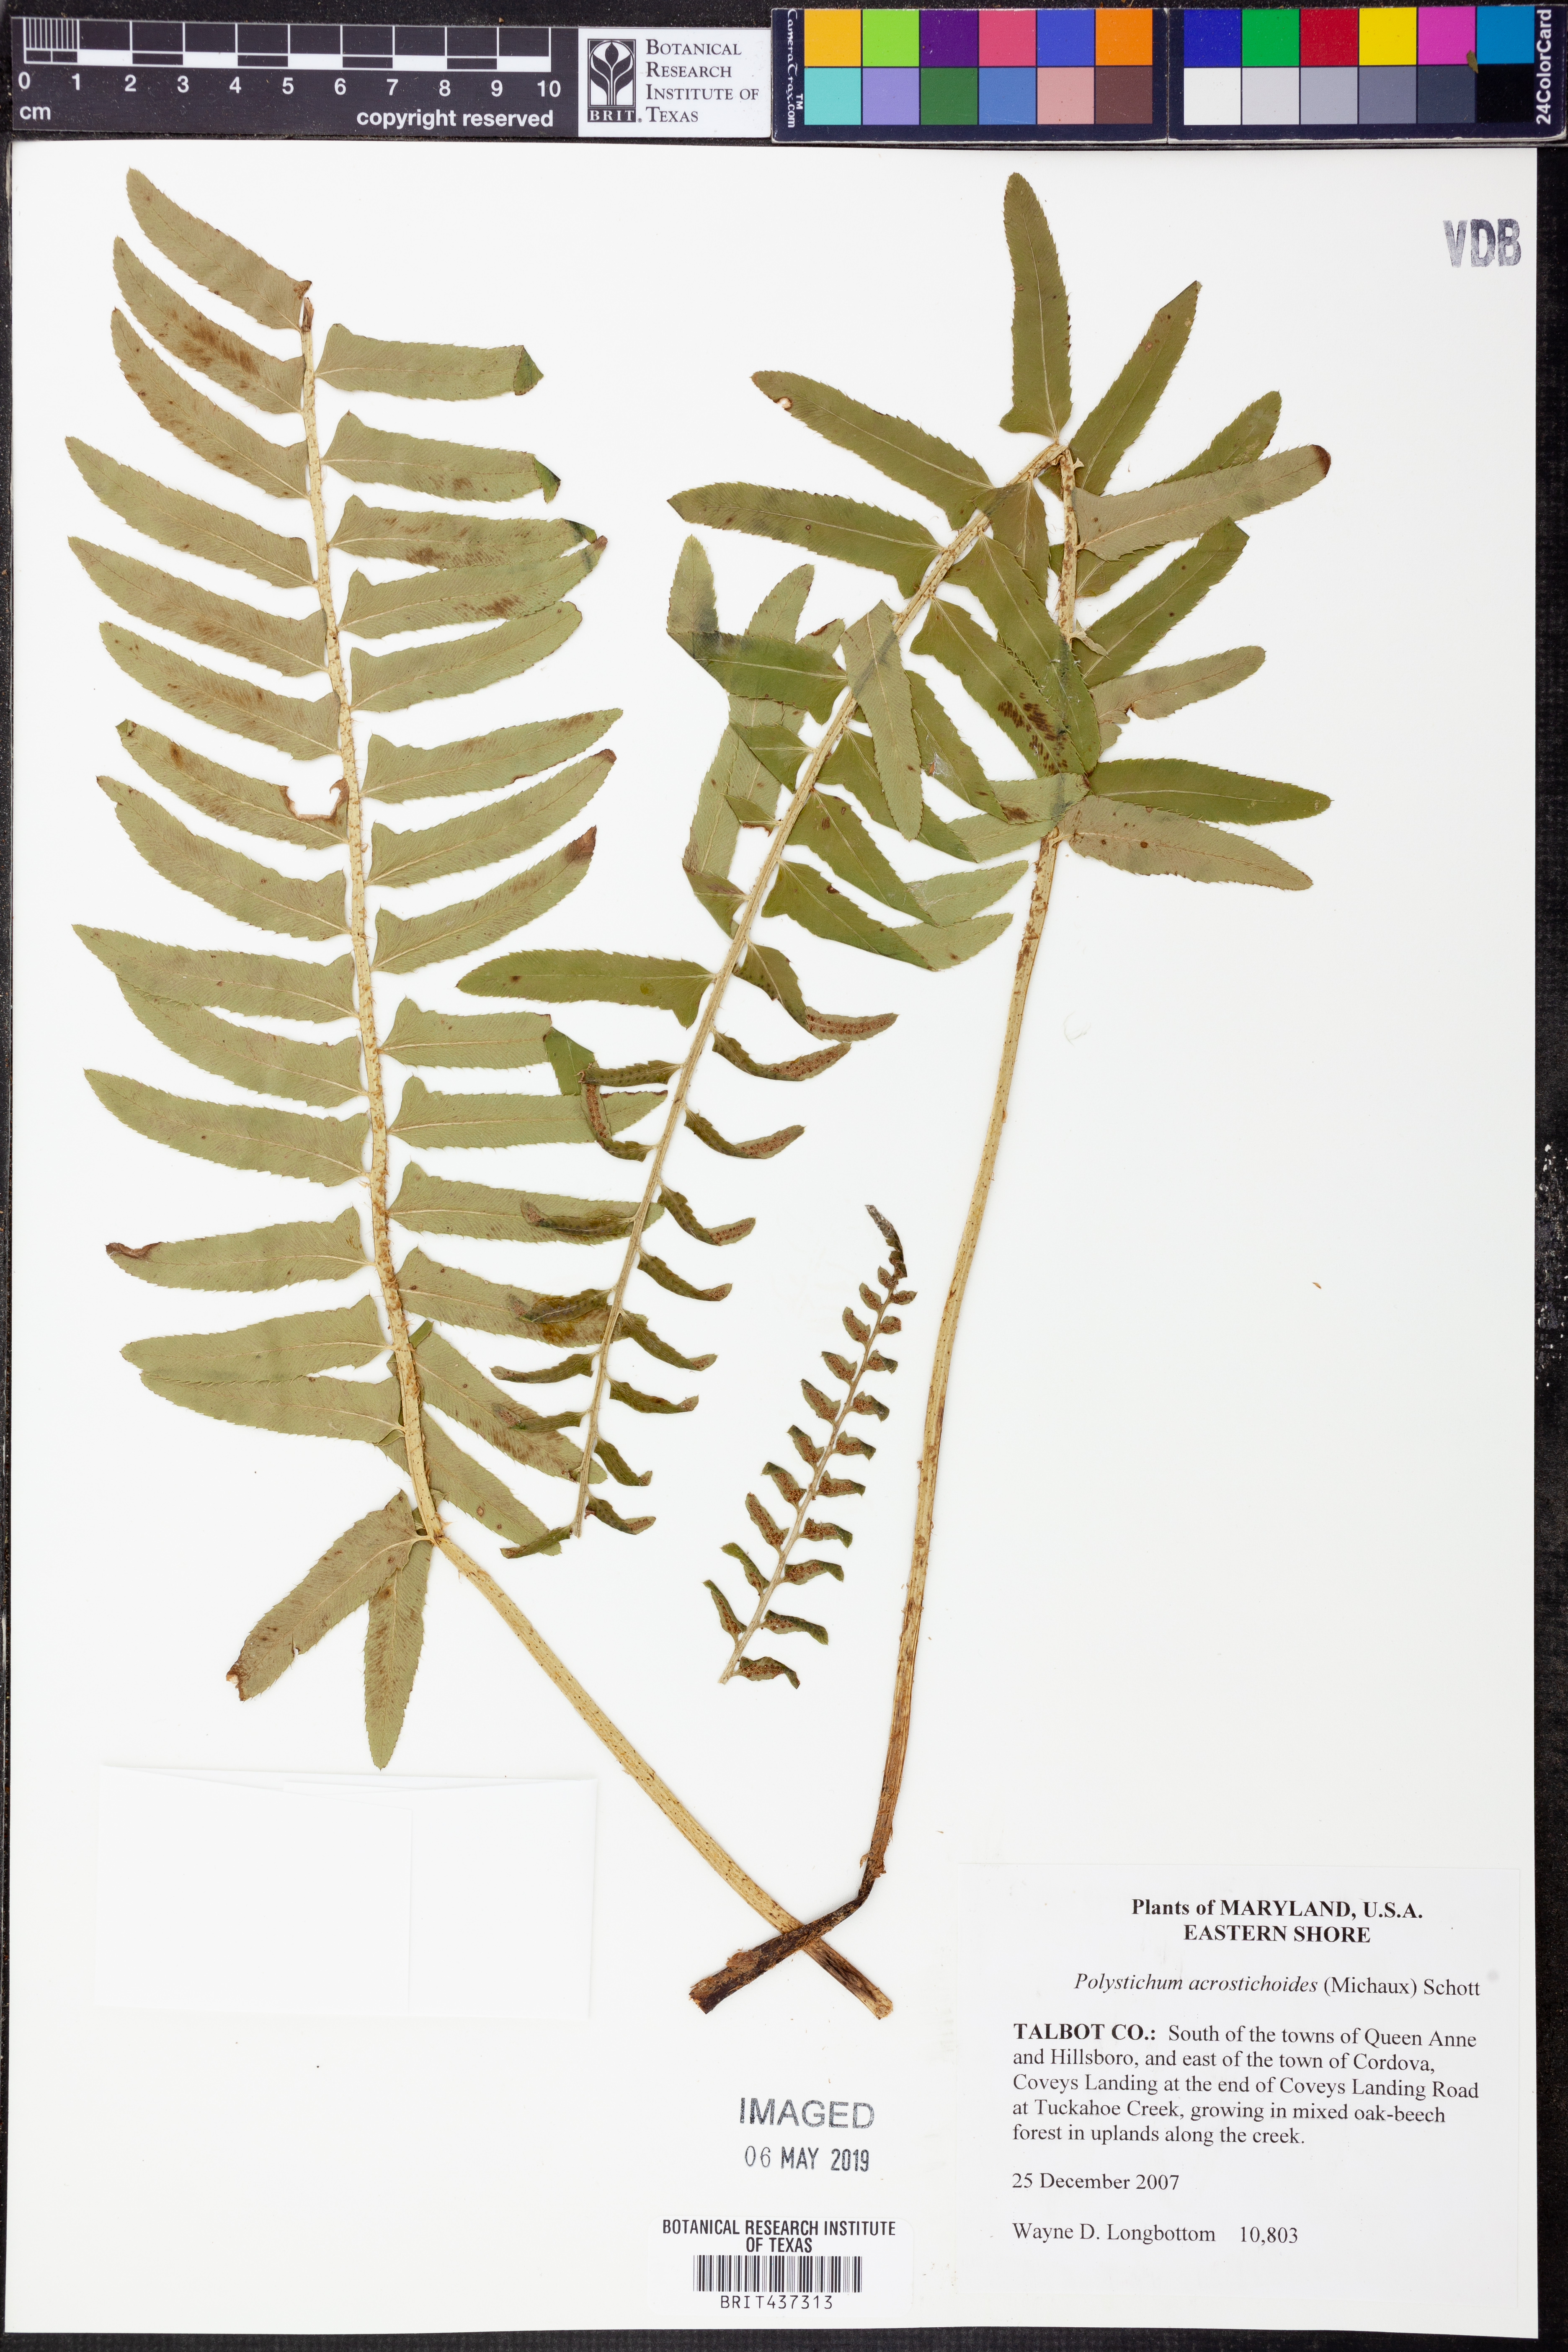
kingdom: Plantae
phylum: Tracheophyta
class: Polypodiopsida
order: Polypodiales
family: Dryopteridaceae
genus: Polystichum
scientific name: Polystichum acrostichoides
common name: Christmas fern
